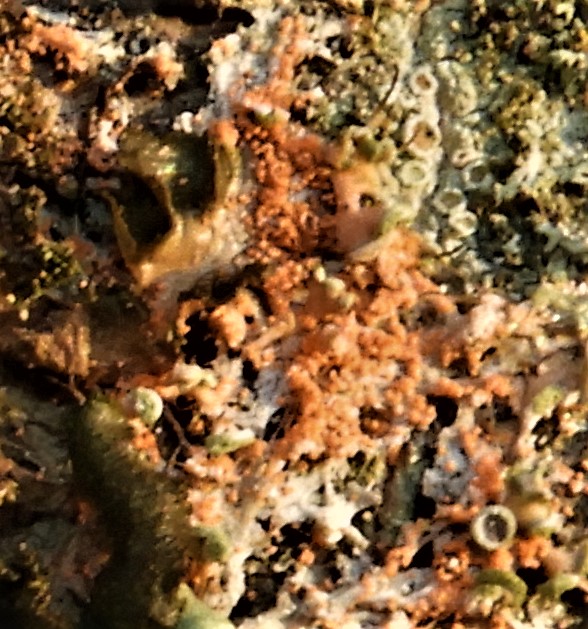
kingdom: Fungi
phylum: Basidiomycota
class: Agaricomycetes
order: Corticiales
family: Corticiaceae
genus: Erythricium
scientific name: Erythricium aurantiacum
